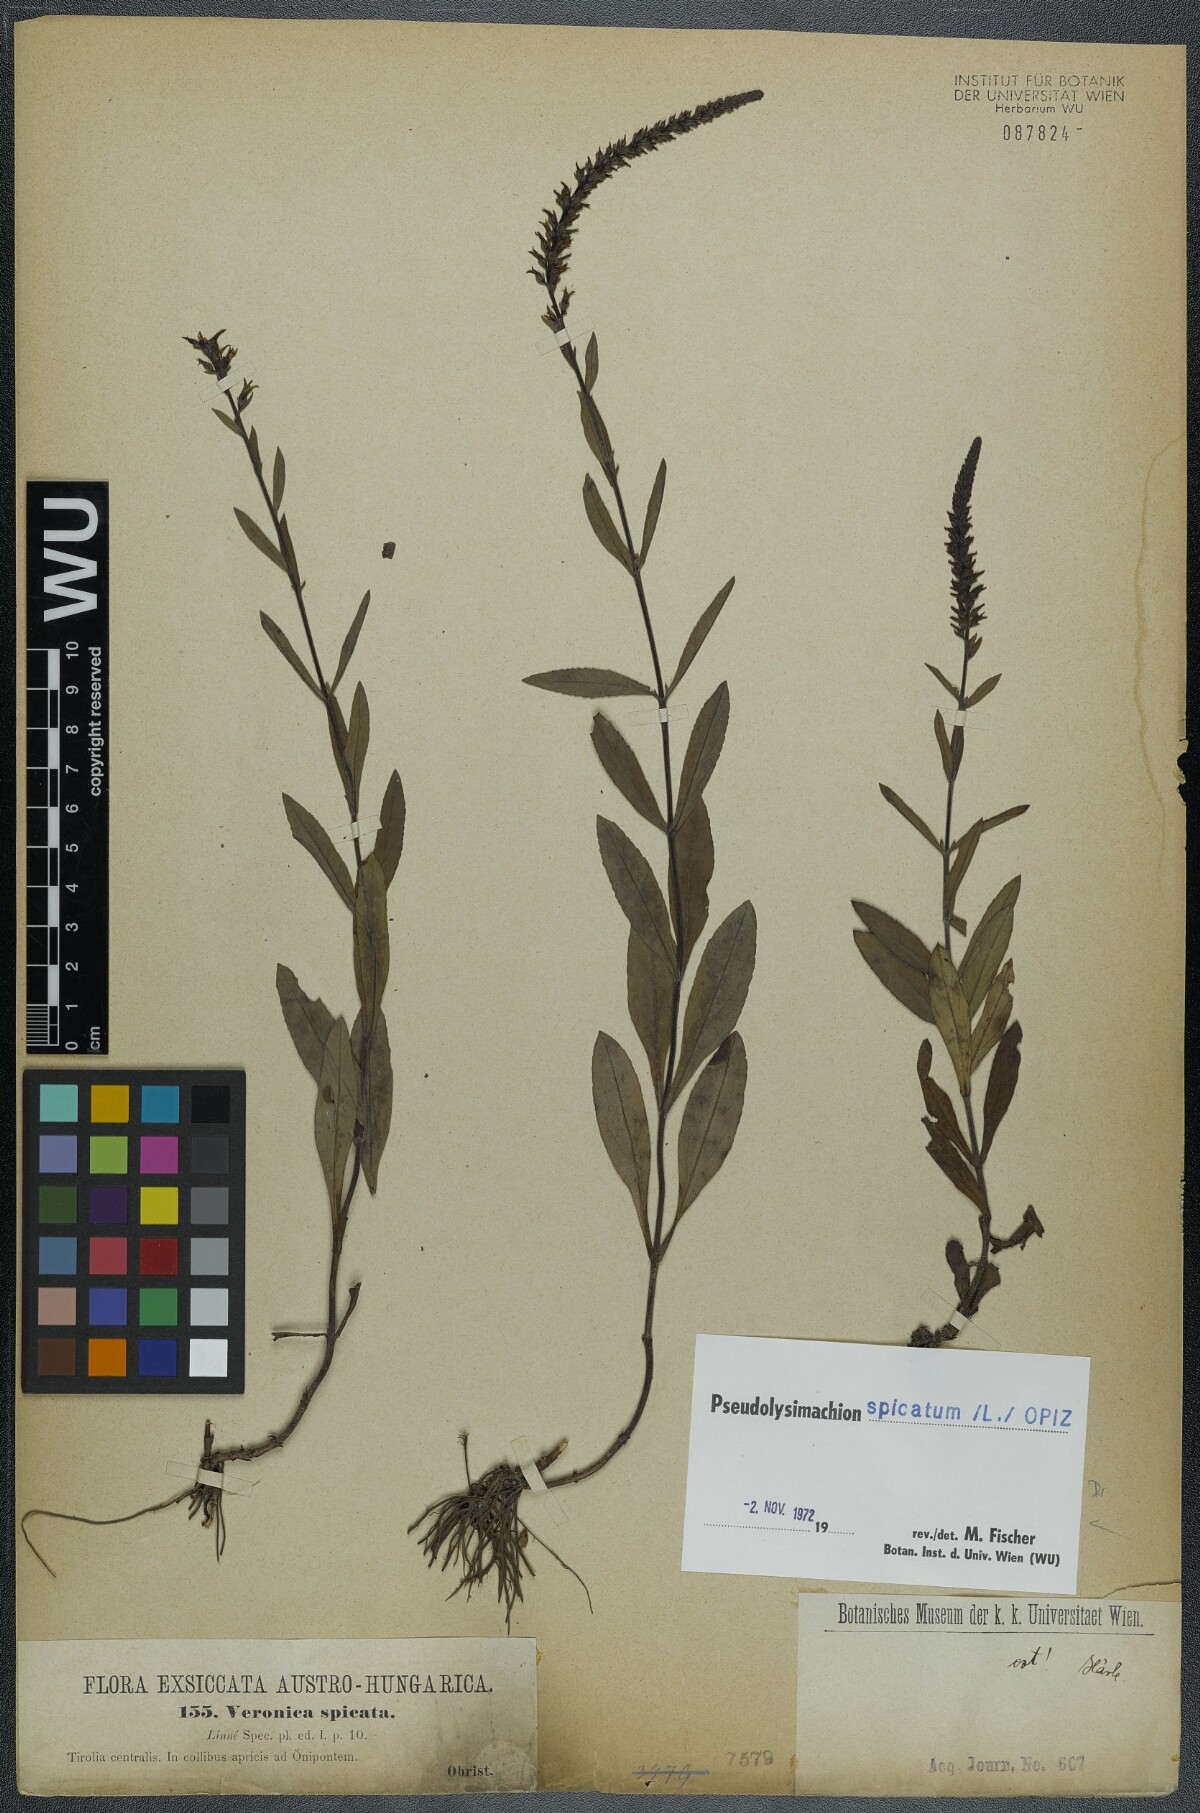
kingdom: Plantae
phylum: Tracheophyta
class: Magnoliopsida
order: Lamiales
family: Plantaginaceae
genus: Veronica
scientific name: Veronica spicata
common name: Spiked speedwell
